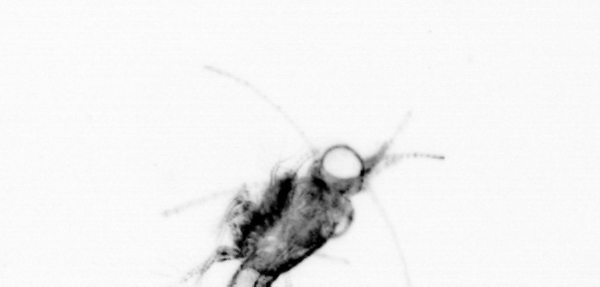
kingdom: Animalia
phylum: Arthropoda
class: Malacostraca
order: Decapoda
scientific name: Decapoda
